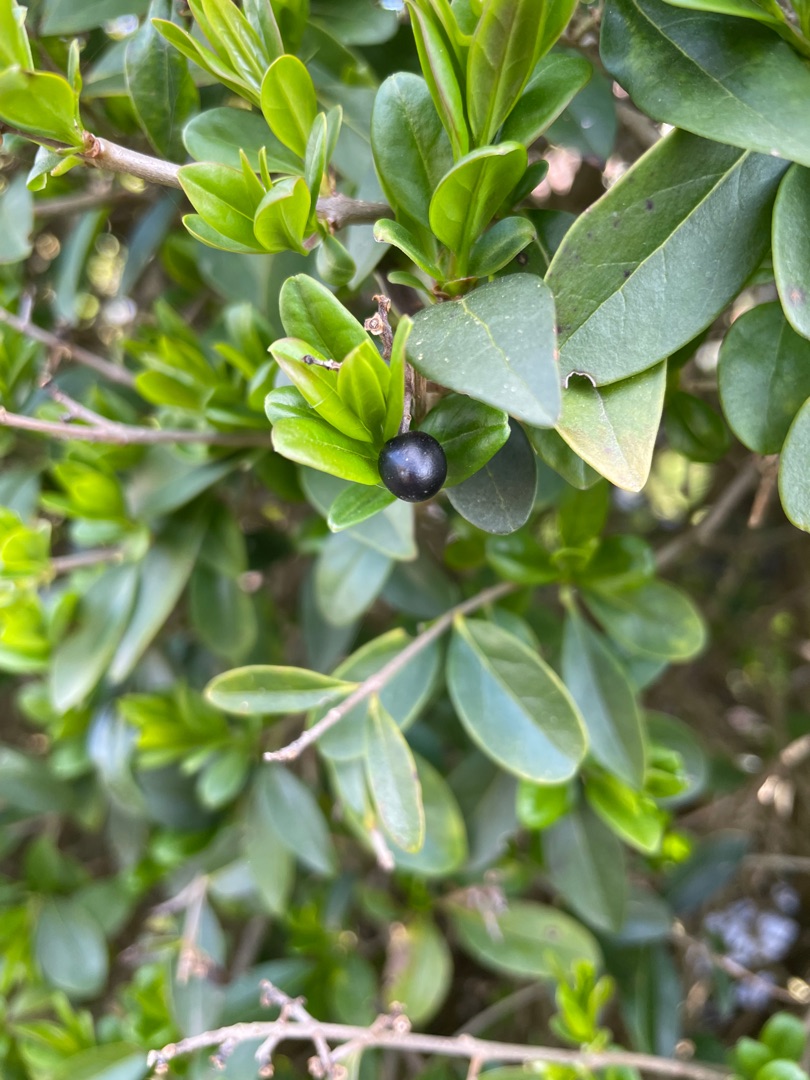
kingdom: Plantae
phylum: Tracheophyta
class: Magnoliopsida
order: Lamiales
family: Oleaceae
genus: Ligustrum
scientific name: Ligustrum vulgare
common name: Liguster
